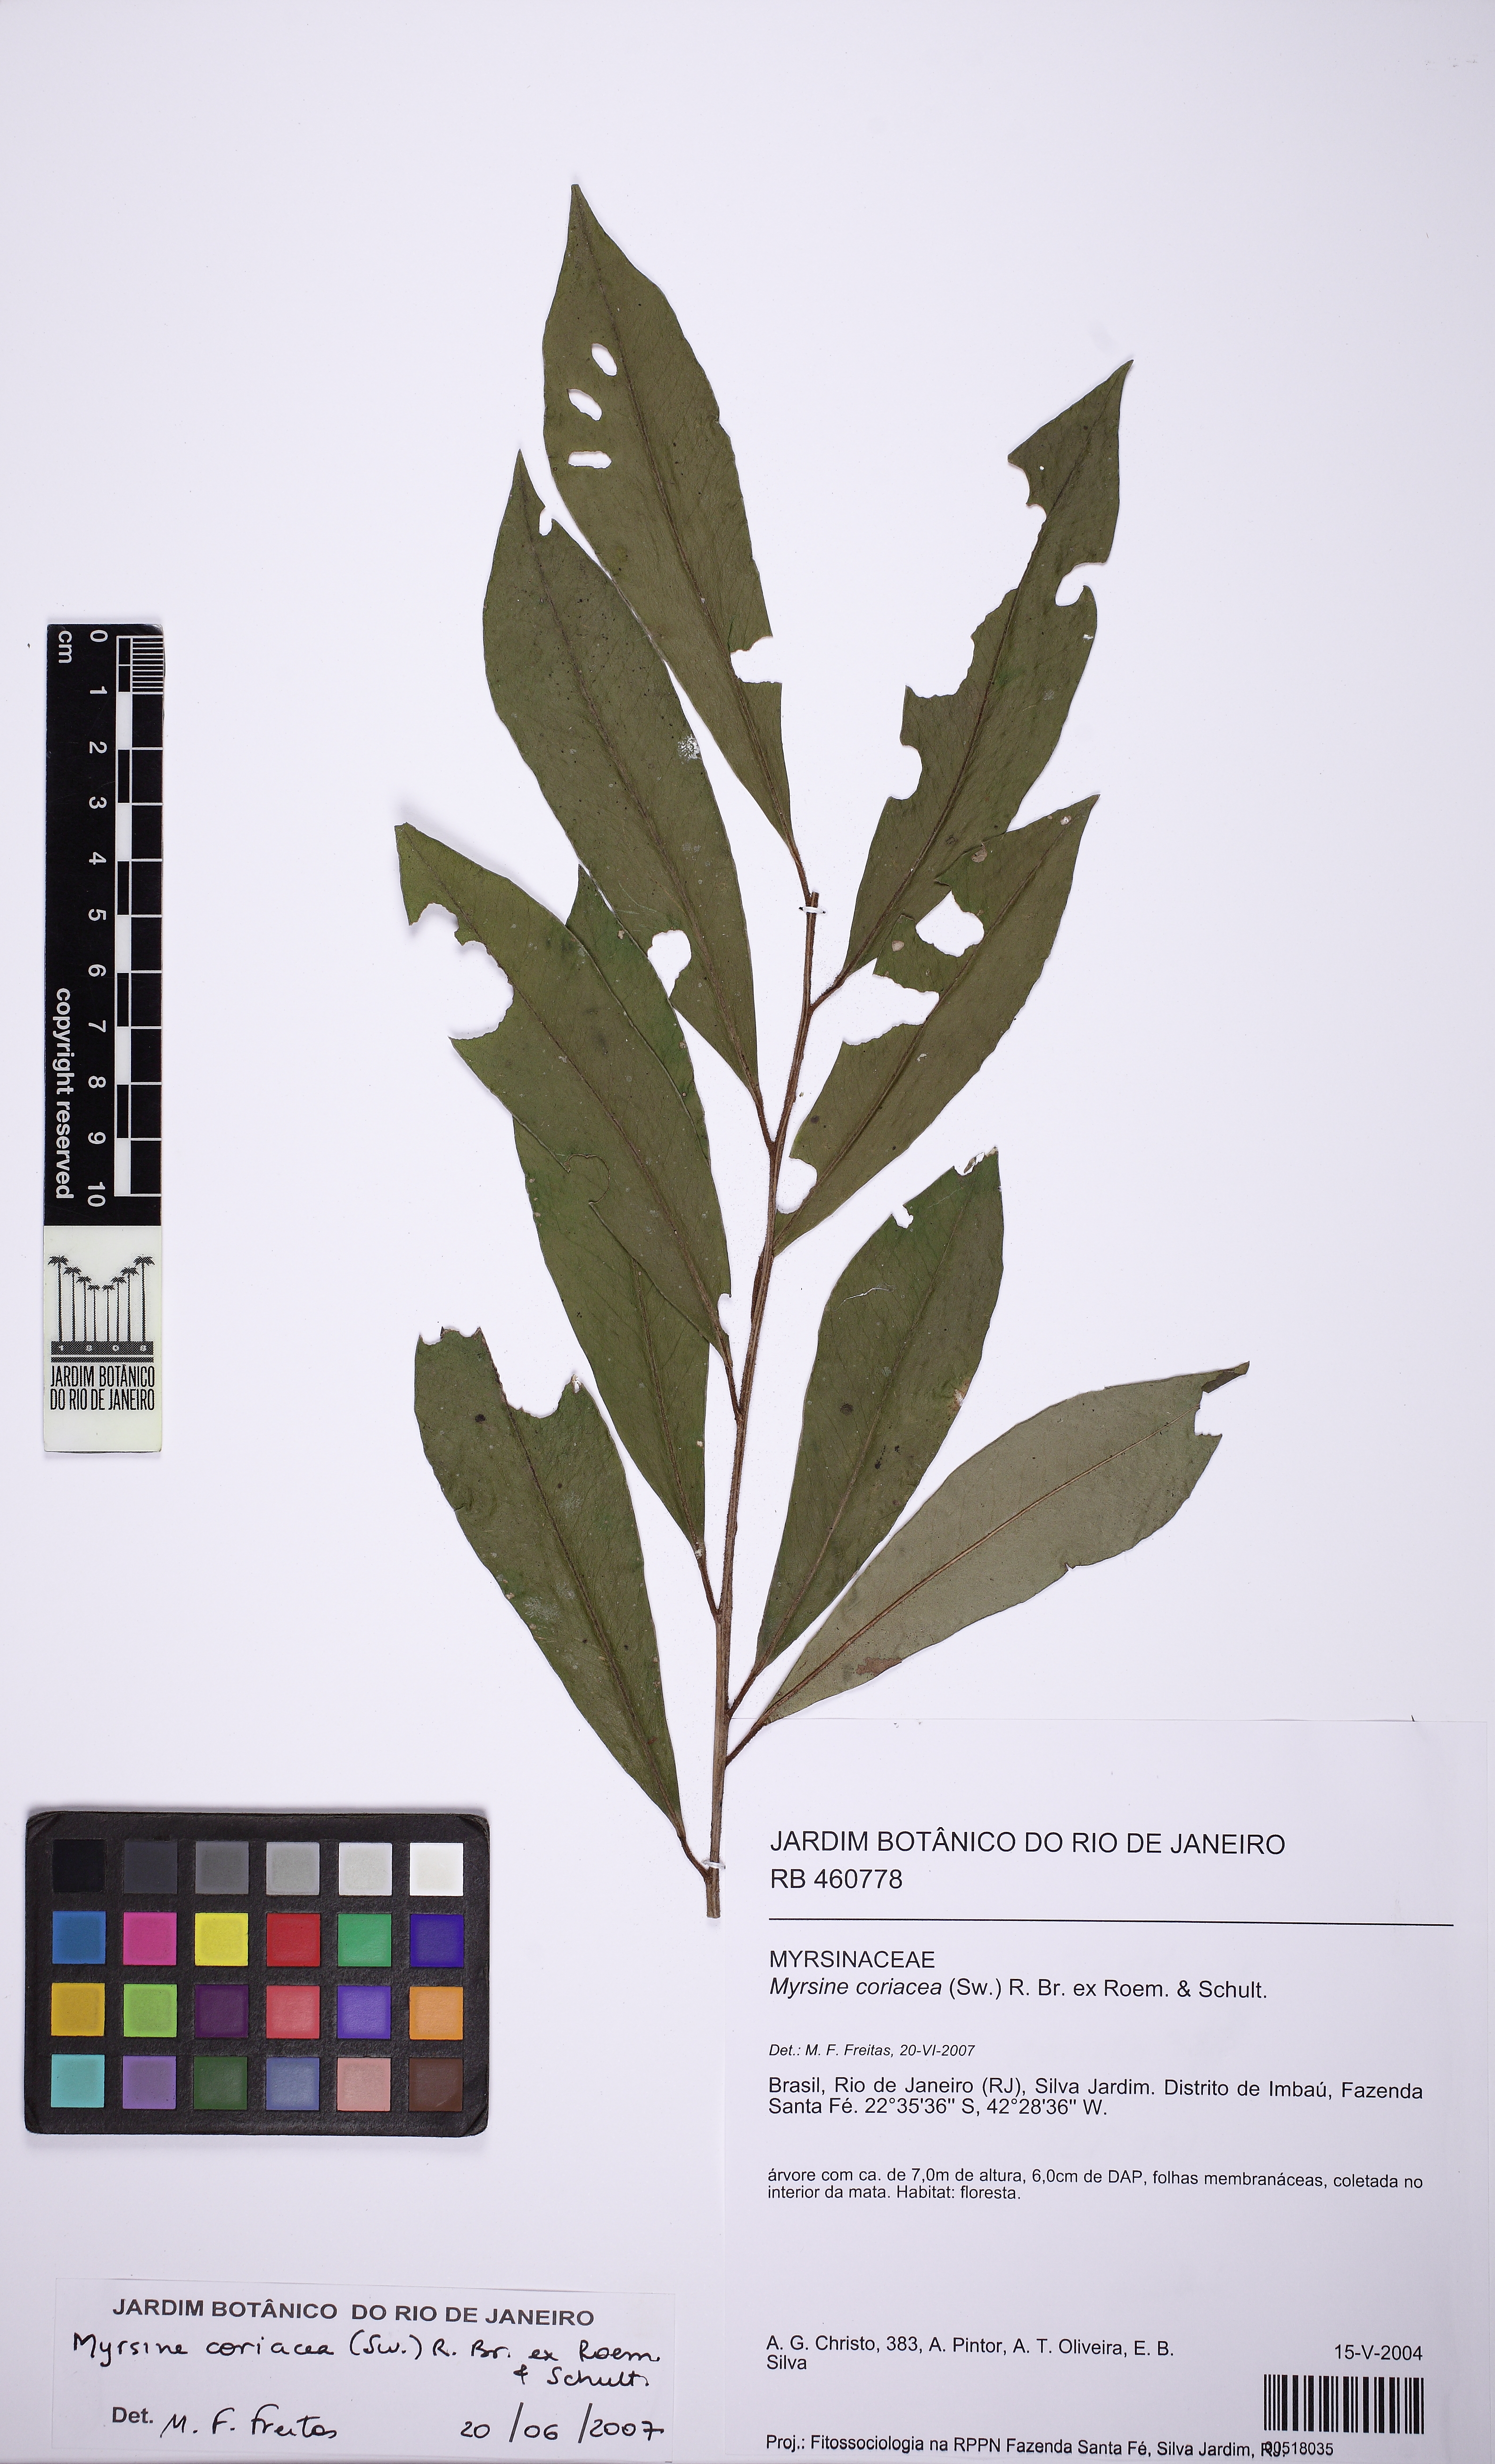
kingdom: Plantae
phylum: Tracheophyta
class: Magnoliopsida
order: Ericales
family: Primulaceae
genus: Myrsine
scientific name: Myrsine coriacea
